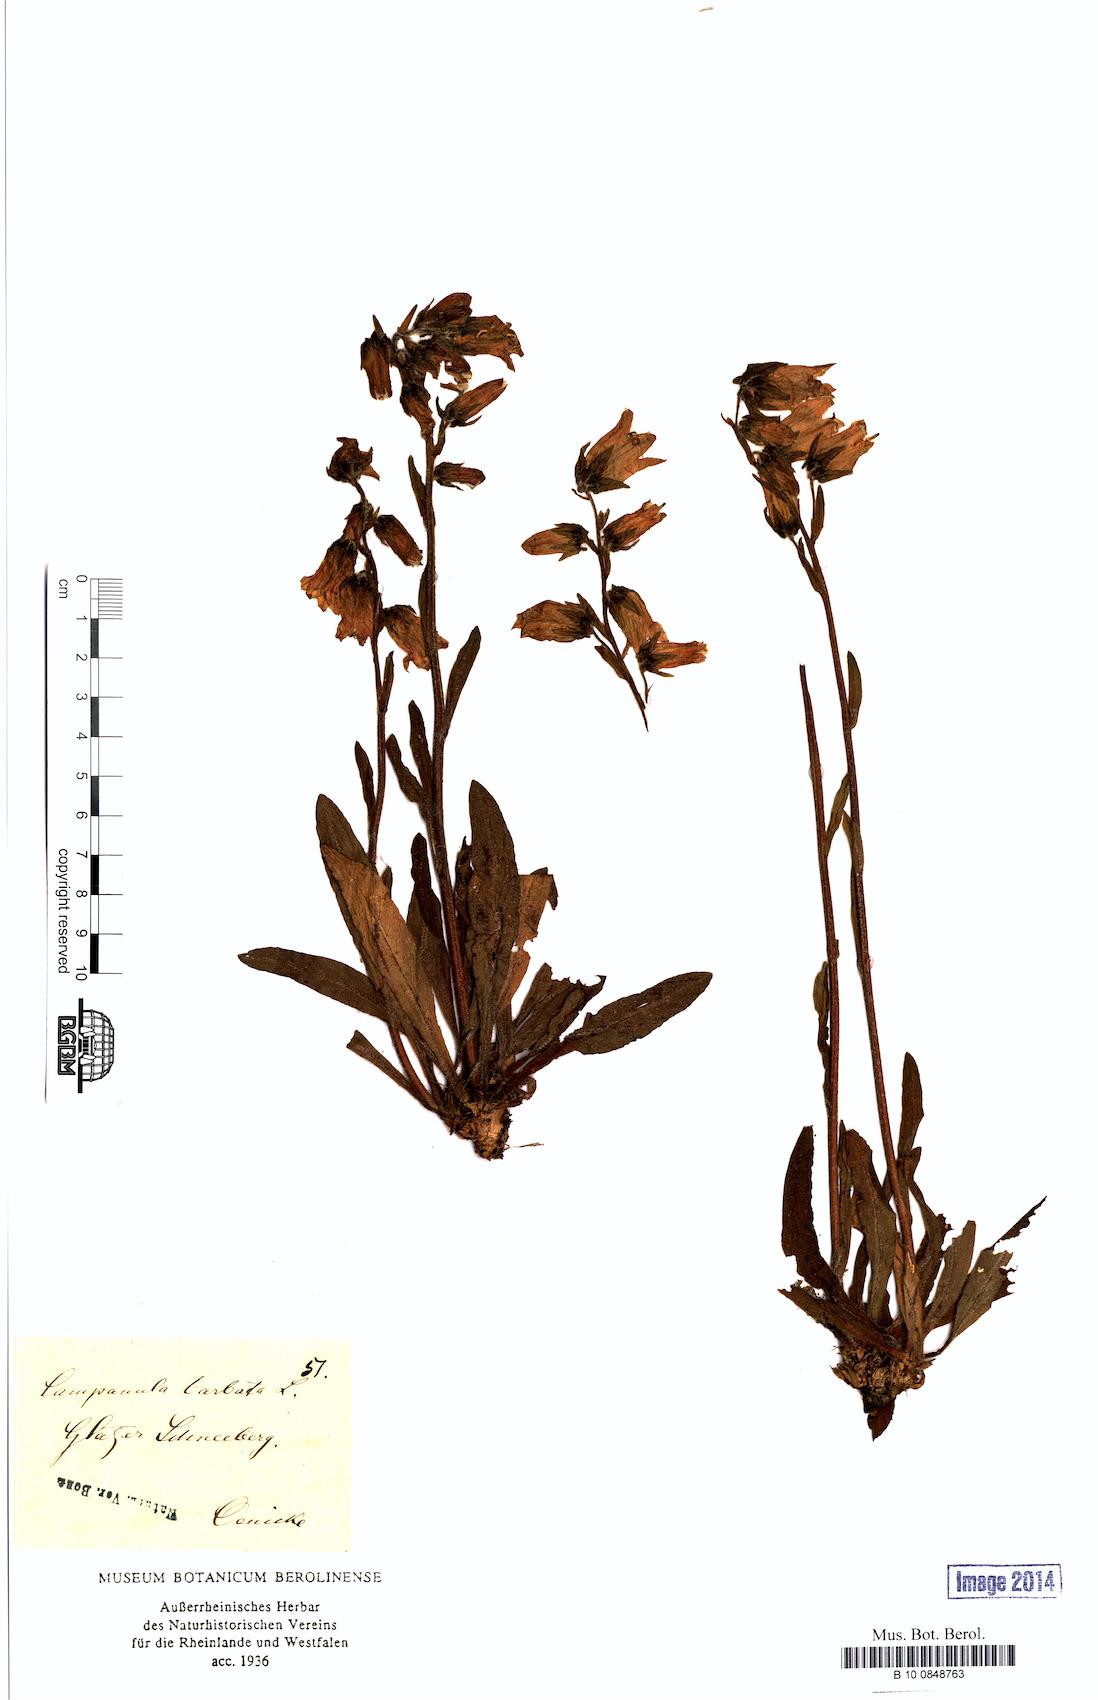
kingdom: Plantae
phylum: Tracheophyta
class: Magnoliopsida
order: Asterales
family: Campanulaceae
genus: Campanula
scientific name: Campanula barbata
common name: Bearded bellflower
